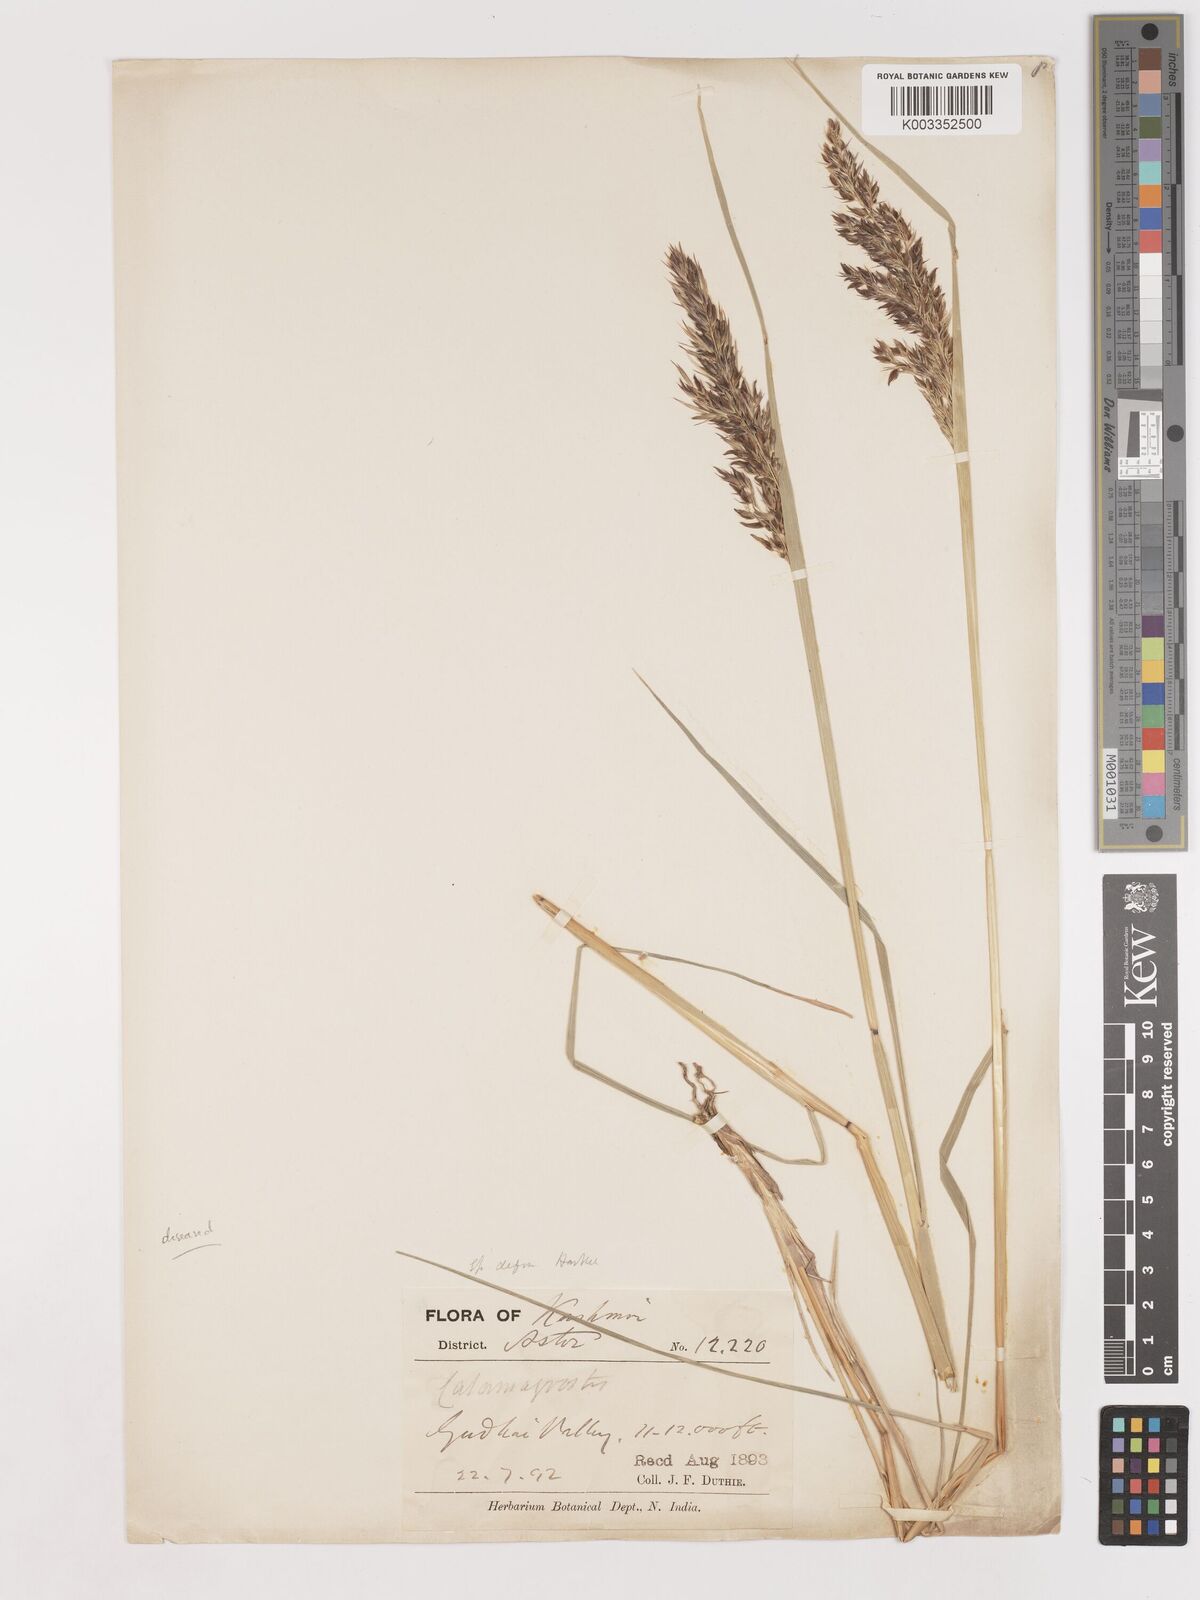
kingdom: Plantae
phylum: Tracheophyta
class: Liliopsida
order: Poales
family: Poaceae
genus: Calamagrostis
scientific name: Calamagrostis
